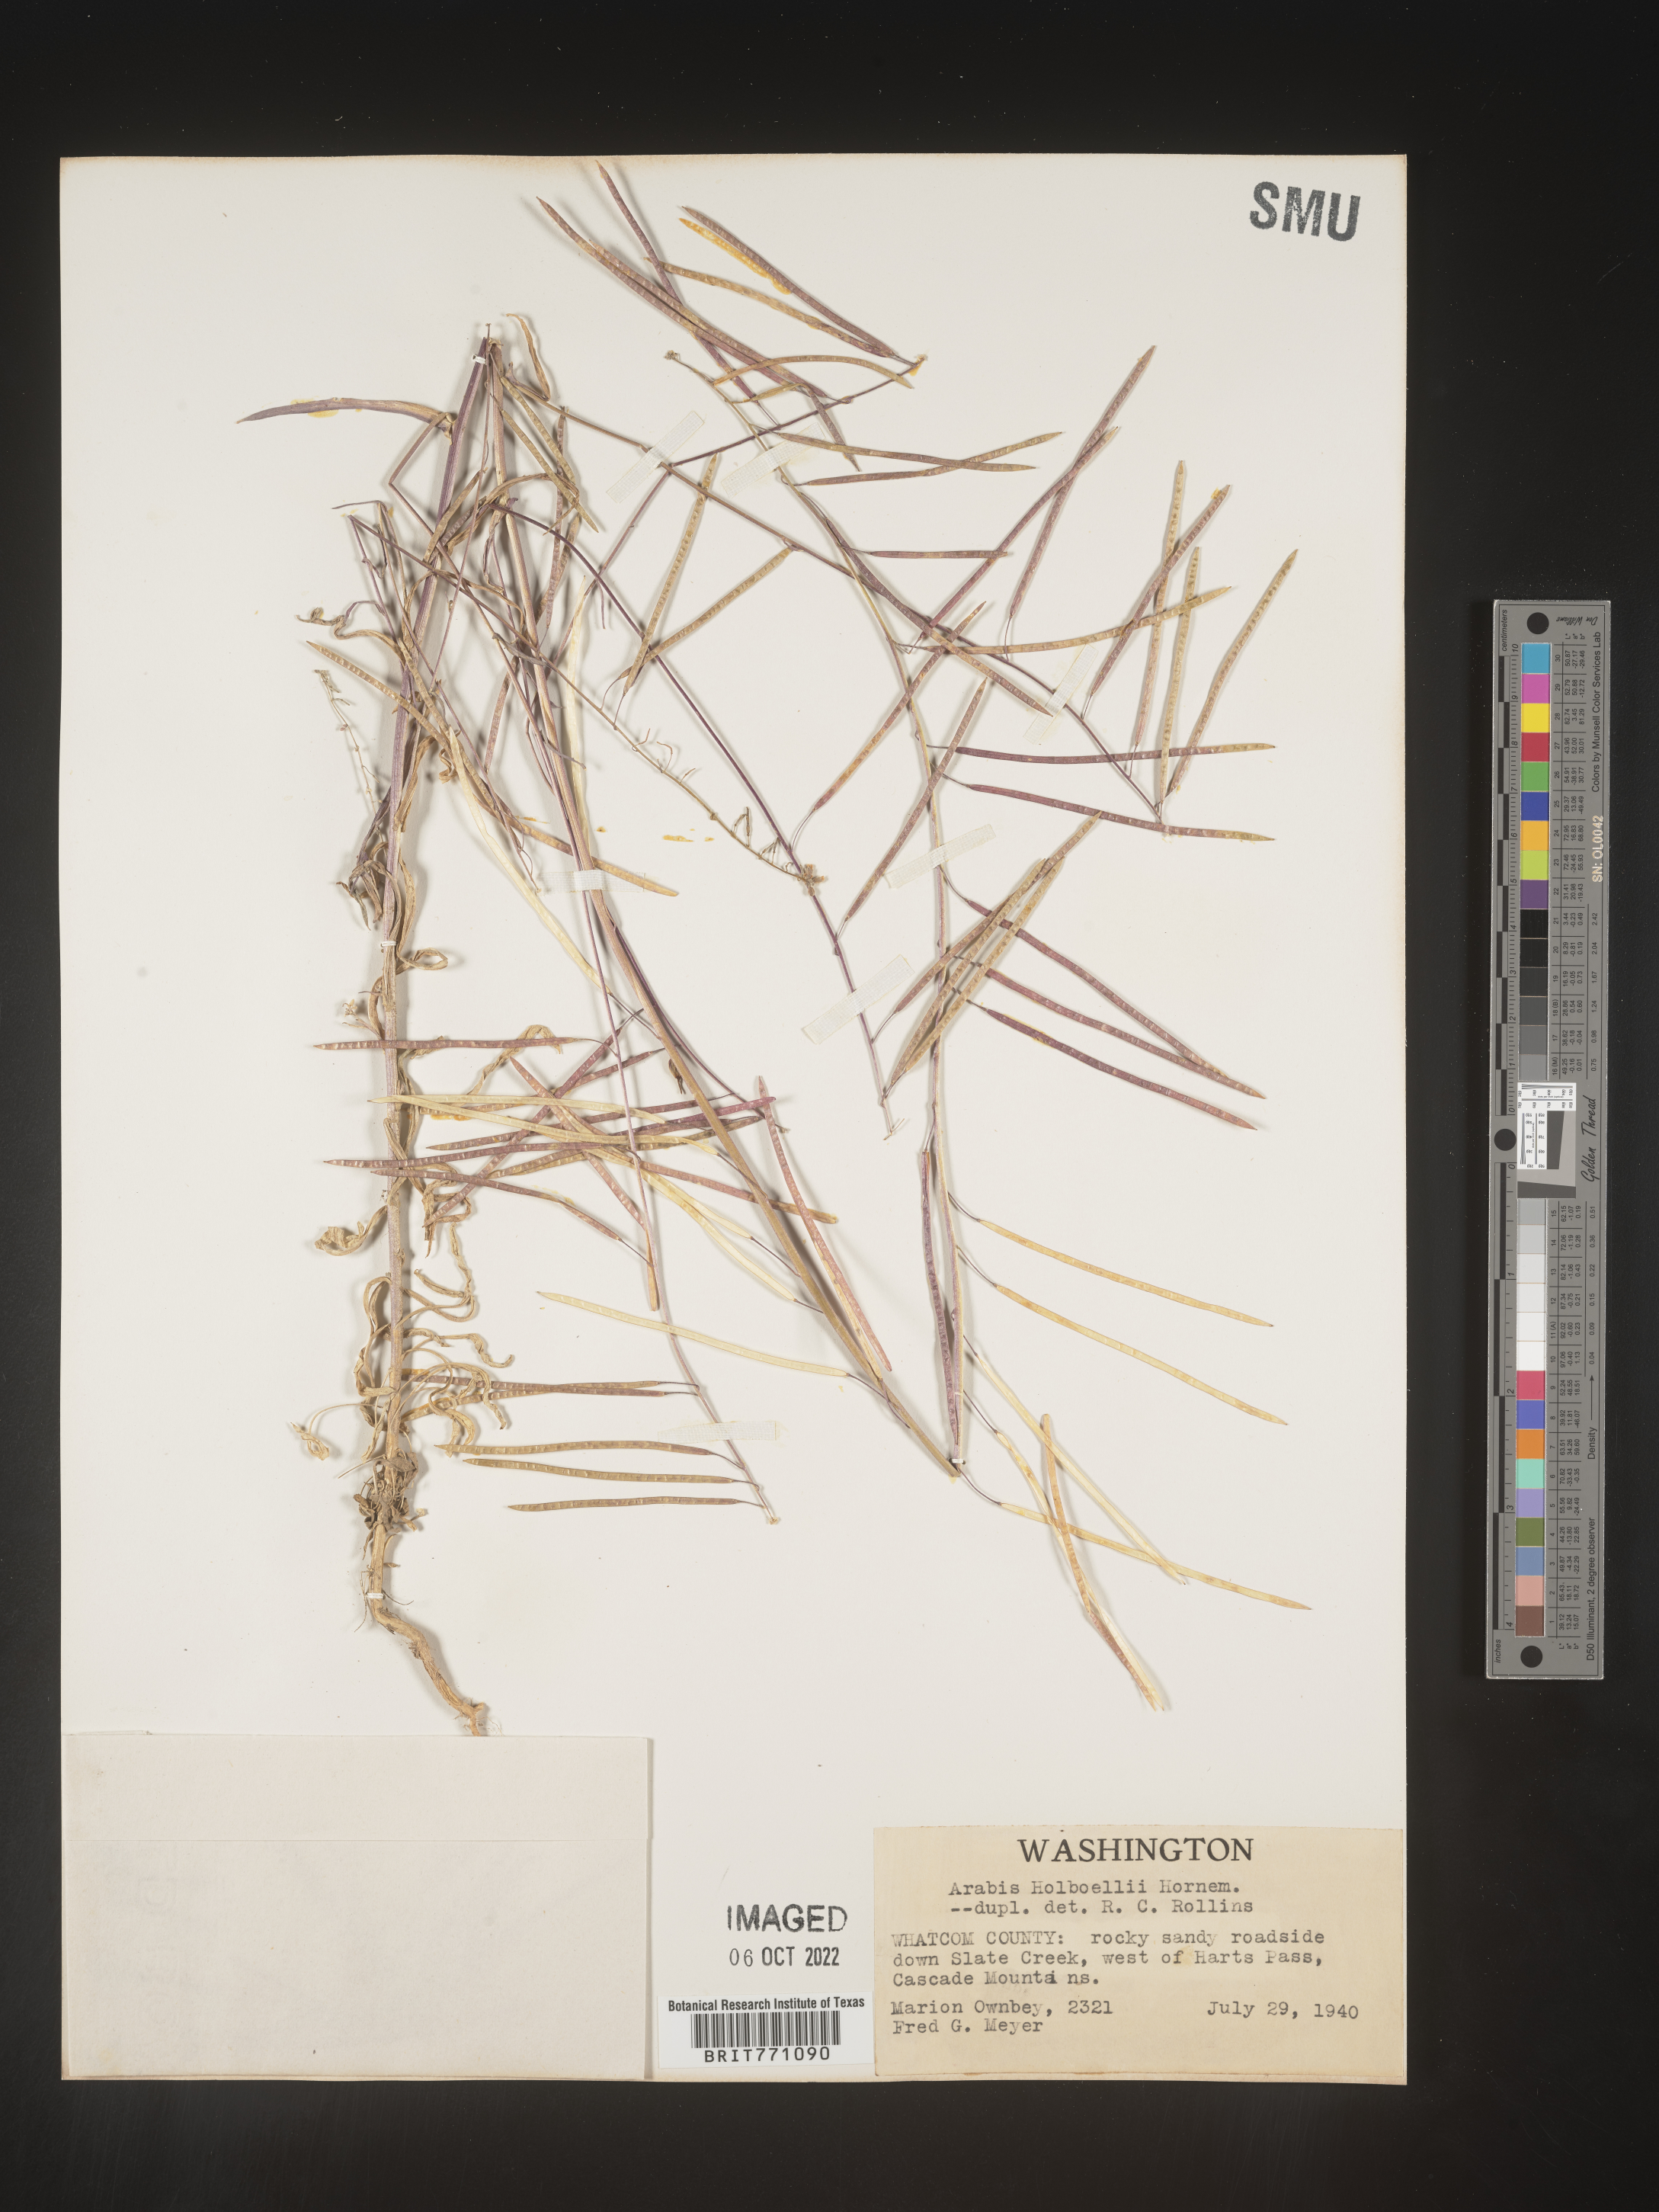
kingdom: Plantae
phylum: Tracheophyta
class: Magnoliopsida
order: Brassicales
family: Brassicaceae
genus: Boechera
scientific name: Boechera holboellii
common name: Holboell's rockcress
